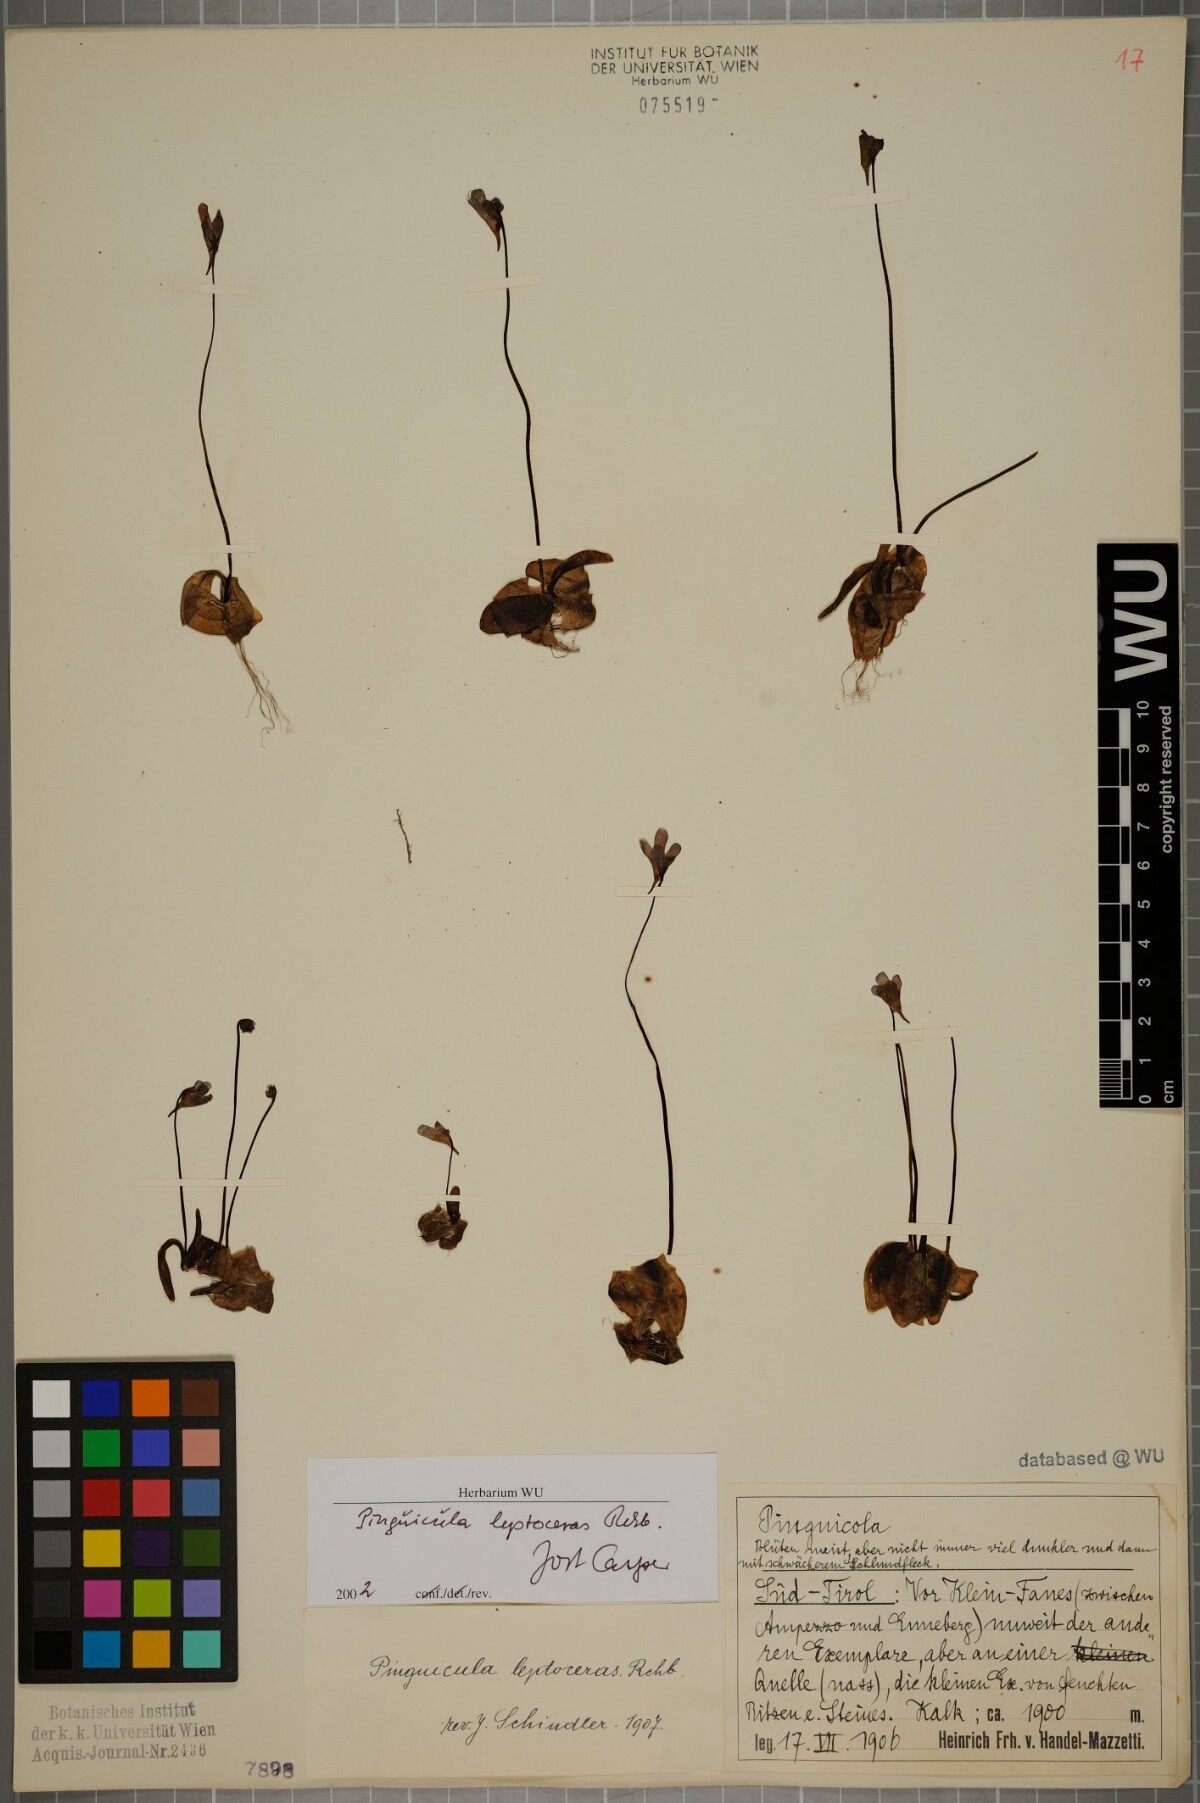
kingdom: Plantae
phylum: Tracheophyta
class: Magnoliopsida
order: Lamiales
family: Lentibulariaceae
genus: Pinguicula
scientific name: Pinguicula leptoceras
